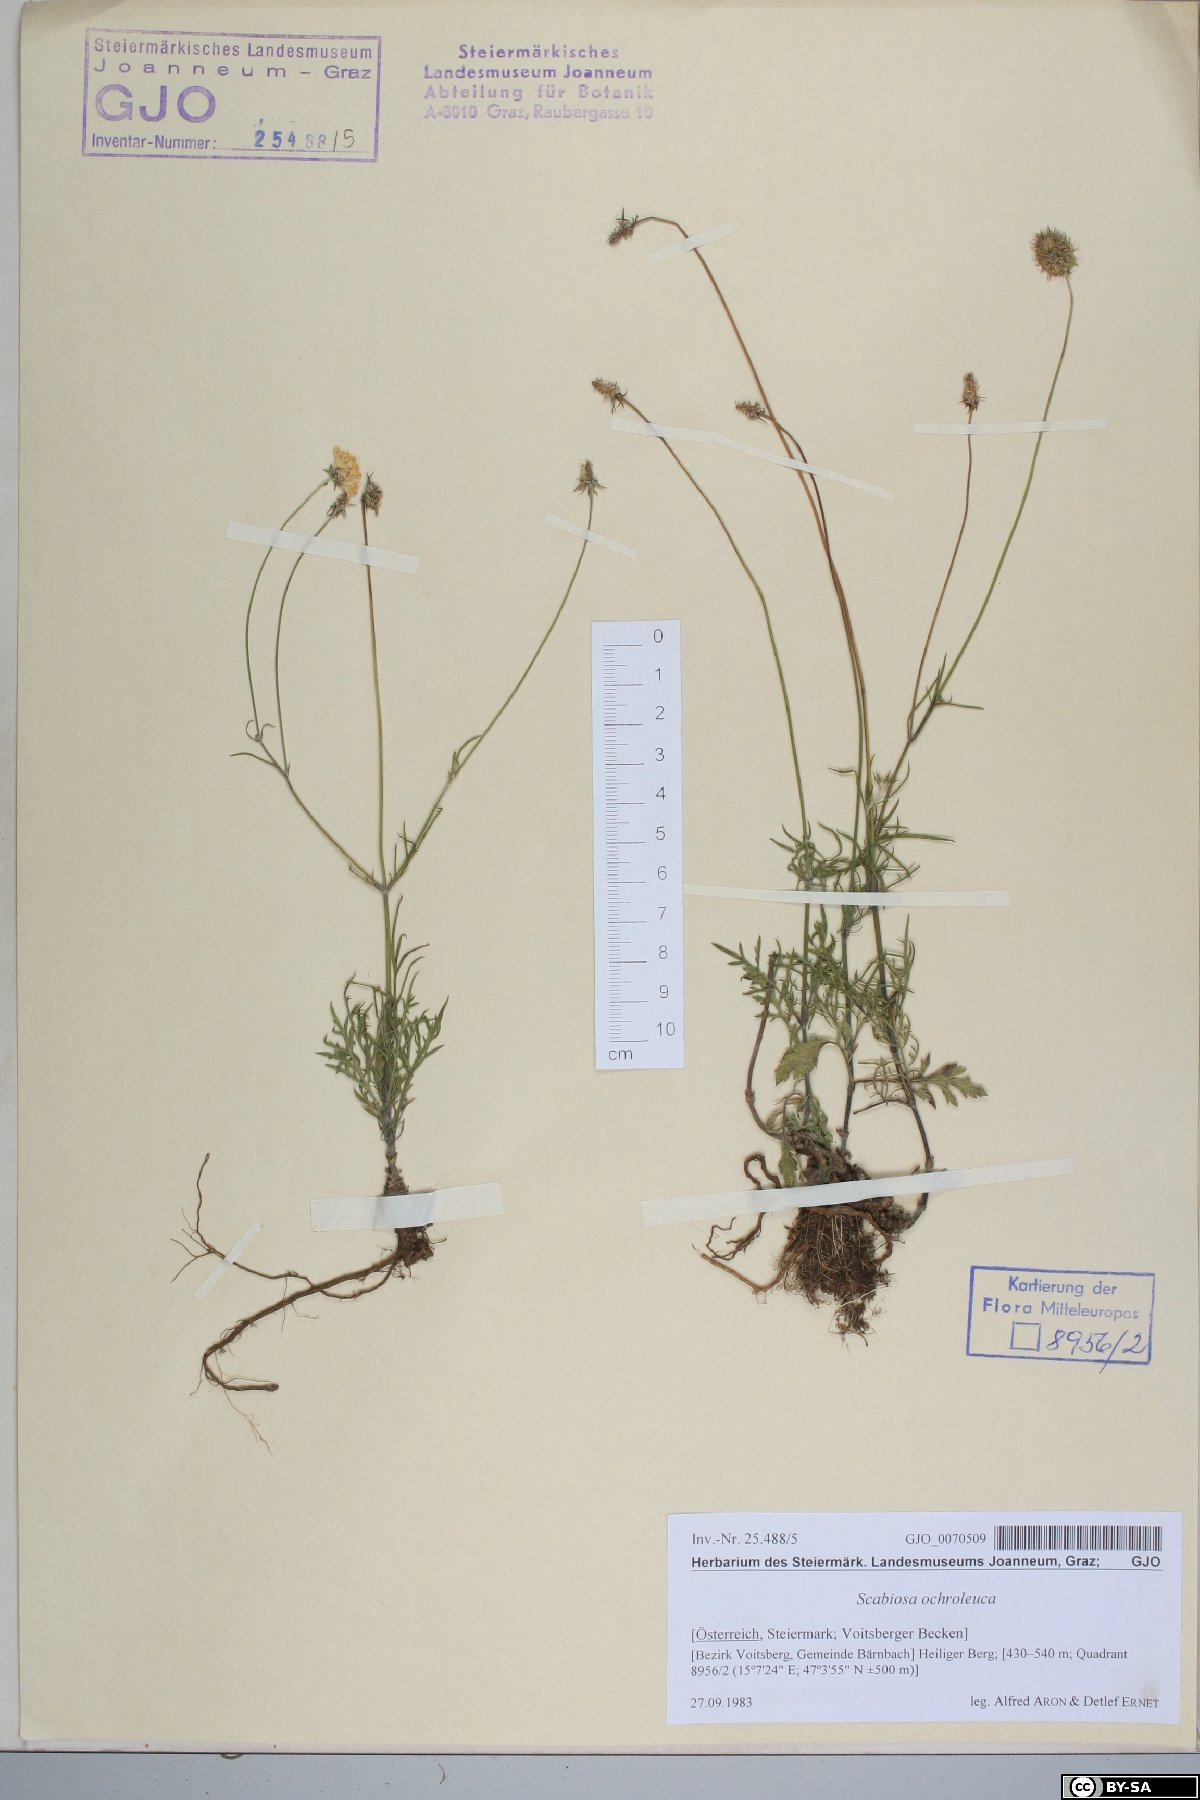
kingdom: Plantae
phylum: Tracheophyta
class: Magnoliopsida
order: Dipsacales
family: Caprifoliaceae
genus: Scabiosa
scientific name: Scabiosa ochroleuca
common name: Cream pincushions
